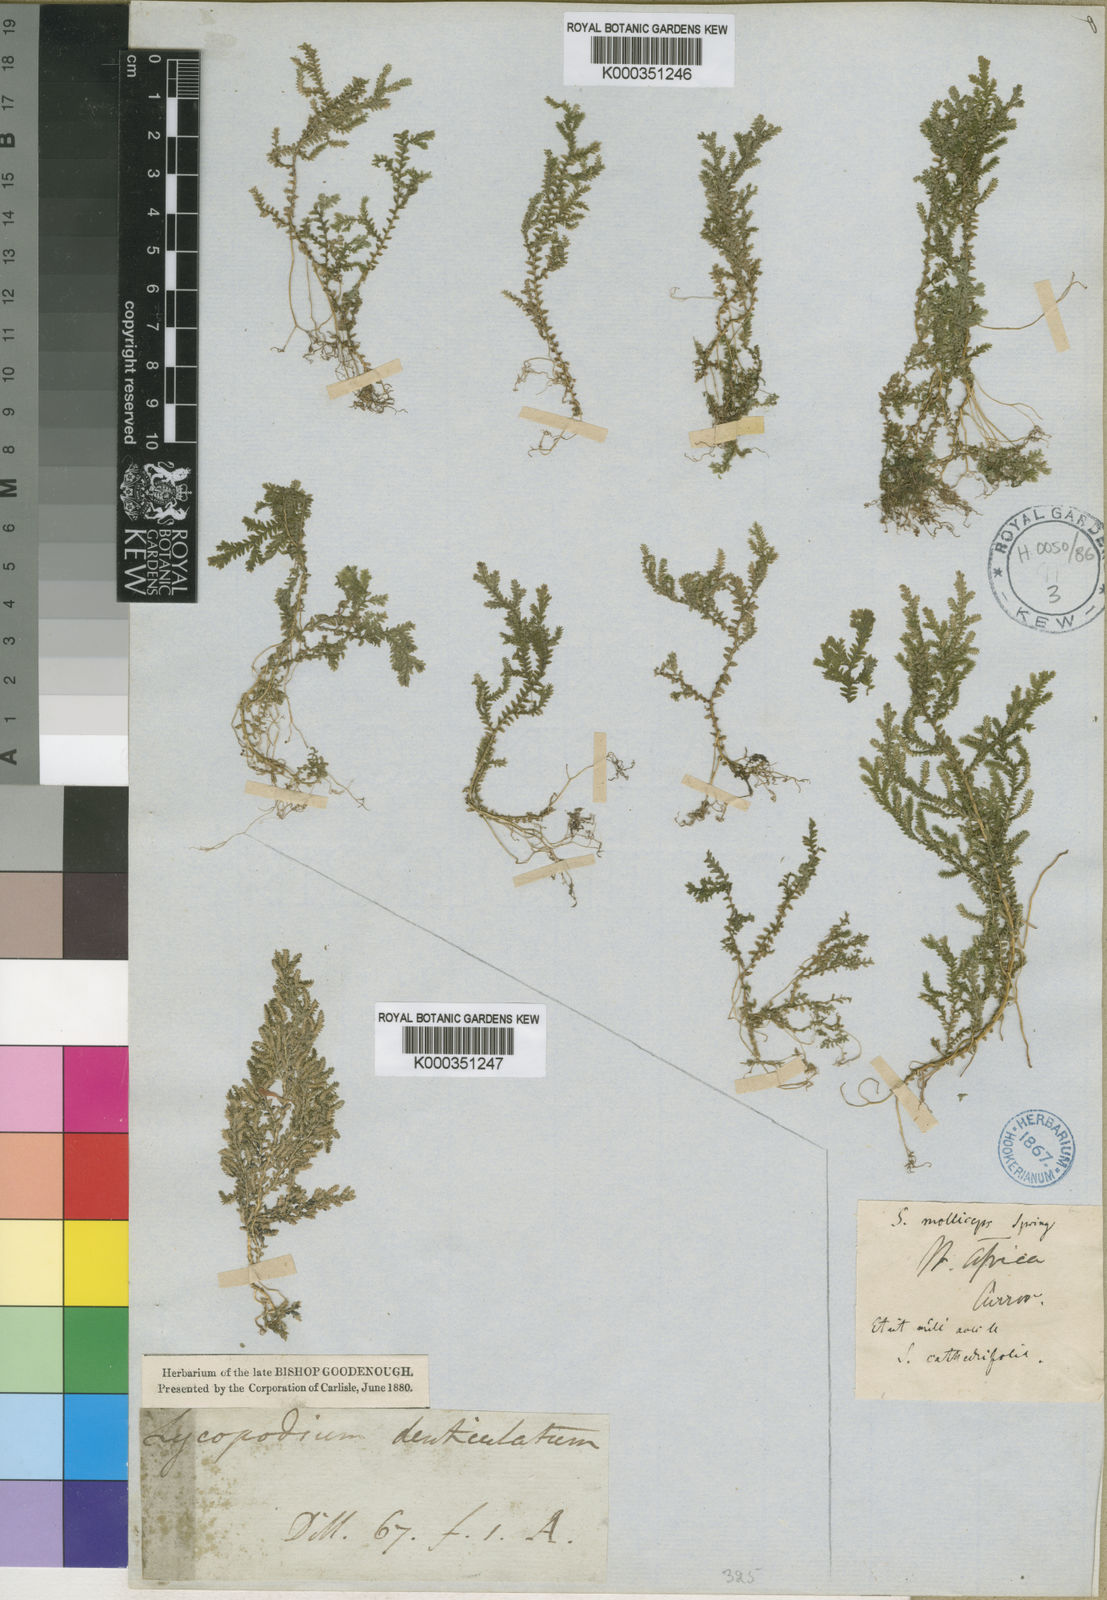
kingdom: Plantae
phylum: Tracheophyta
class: Lycopodiopsida
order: Selaginellales
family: Selaginellaceae
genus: Selaginella
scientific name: Selaginella molliceps
